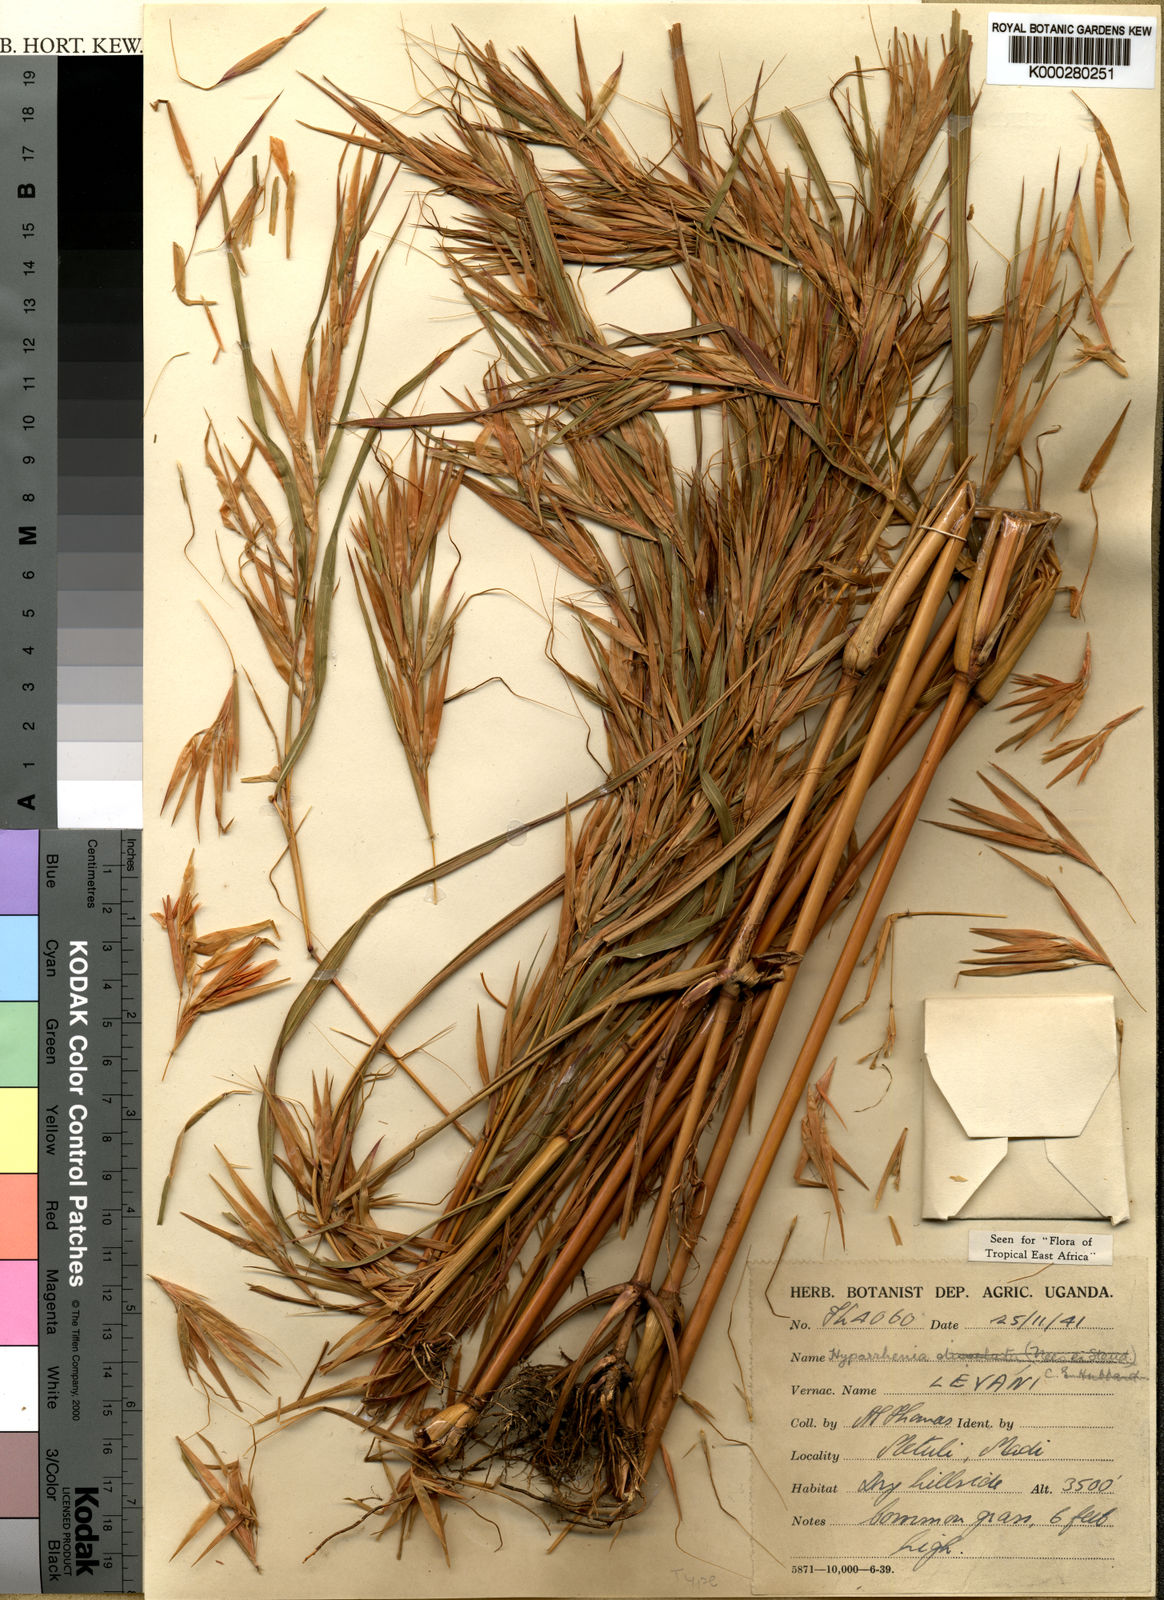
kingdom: Plantae
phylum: Tracheophyta
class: Liliopsida
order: Poales
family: Poaceae
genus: Hyparrhenia
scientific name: Hyparrhenia madaropoda
